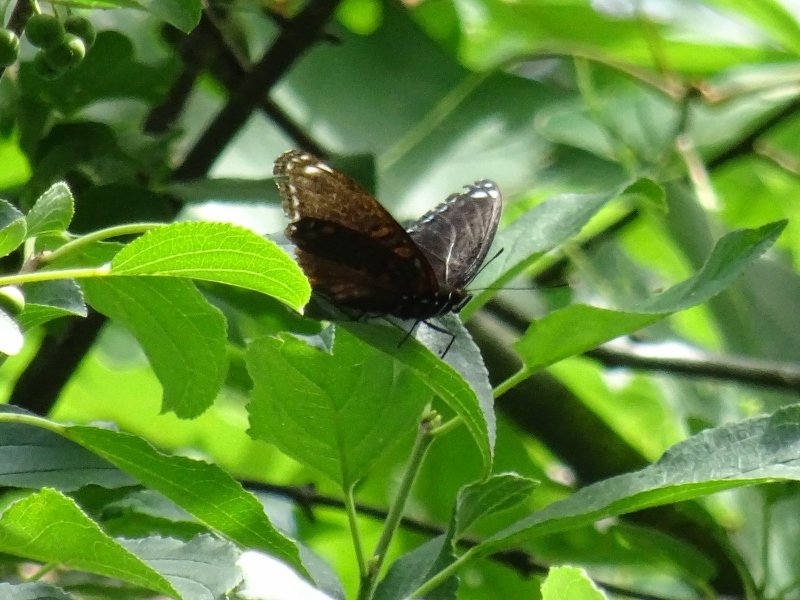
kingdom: Animalia
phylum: Arthropoda
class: Insecta
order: Lepidoptera
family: Nymphalidae
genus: Limenitis
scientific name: Limenitis astyanax
